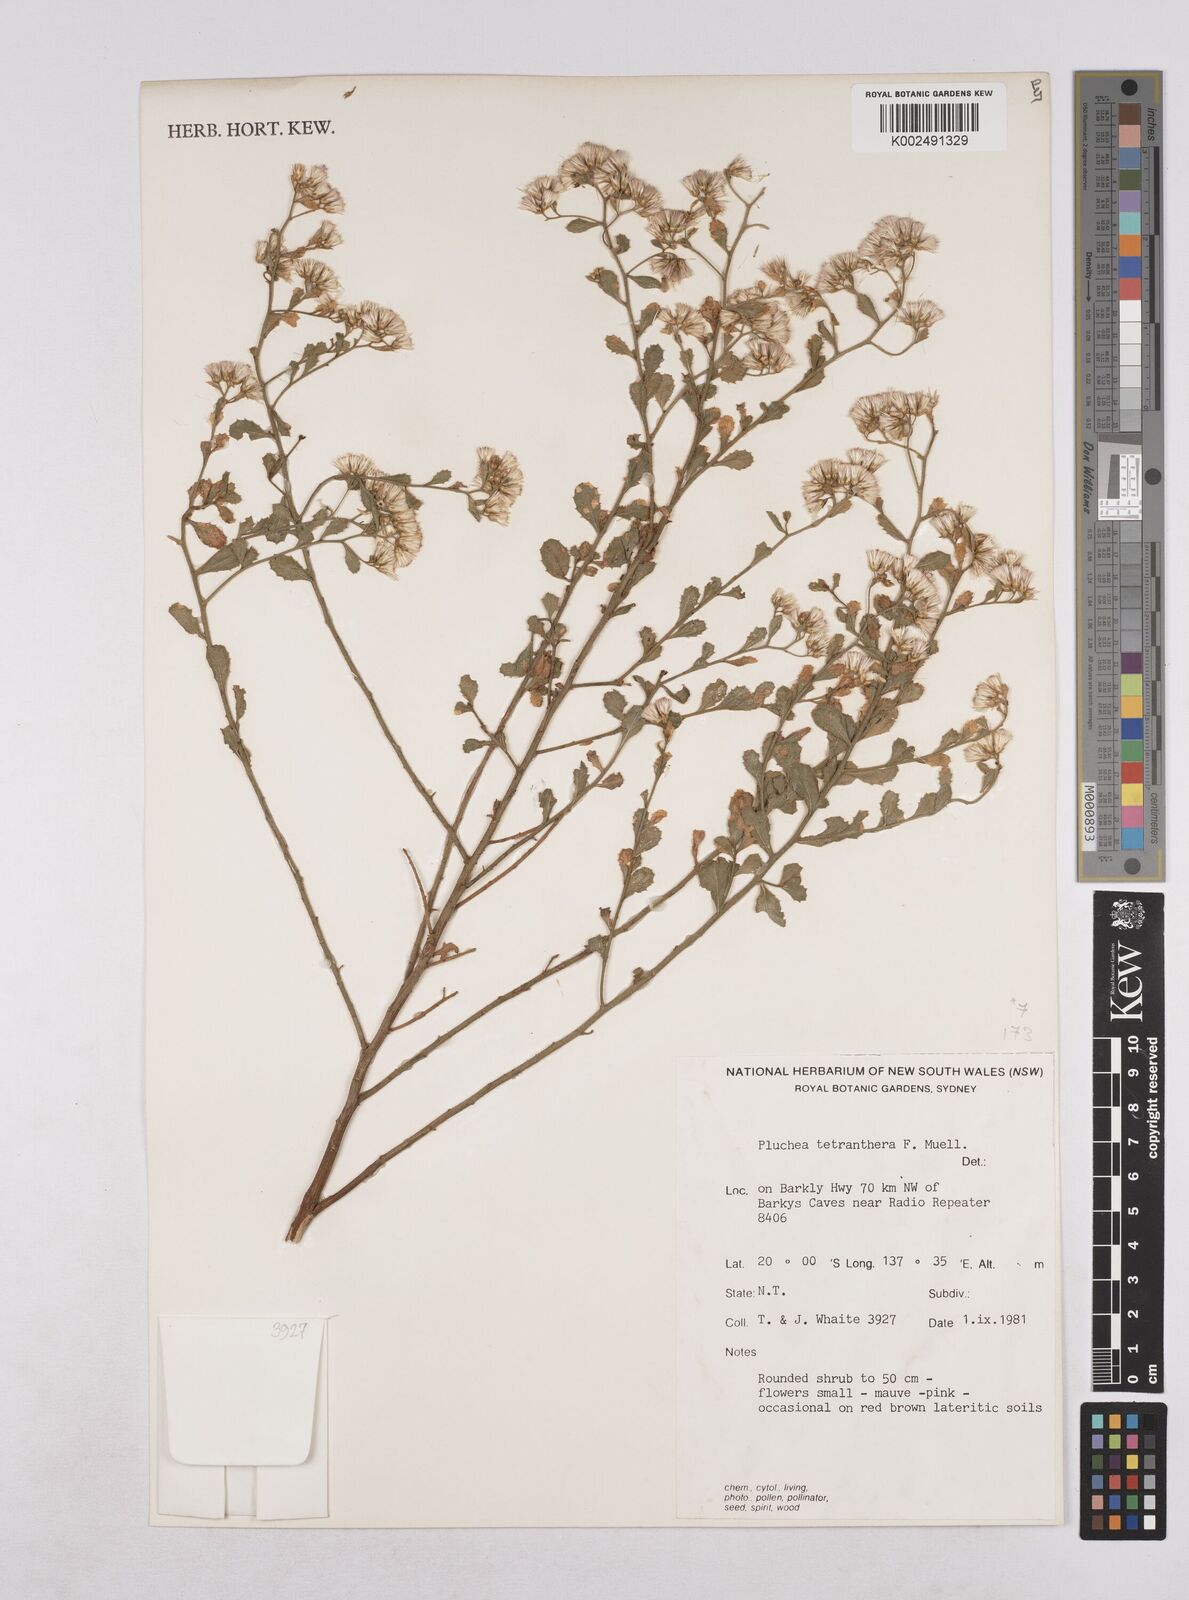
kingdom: Plantae
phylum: Tracheophyta
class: Magnoliopsida
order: Asterales
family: Asteraceae
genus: Pluchea
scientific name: Pluchea dunlopii
